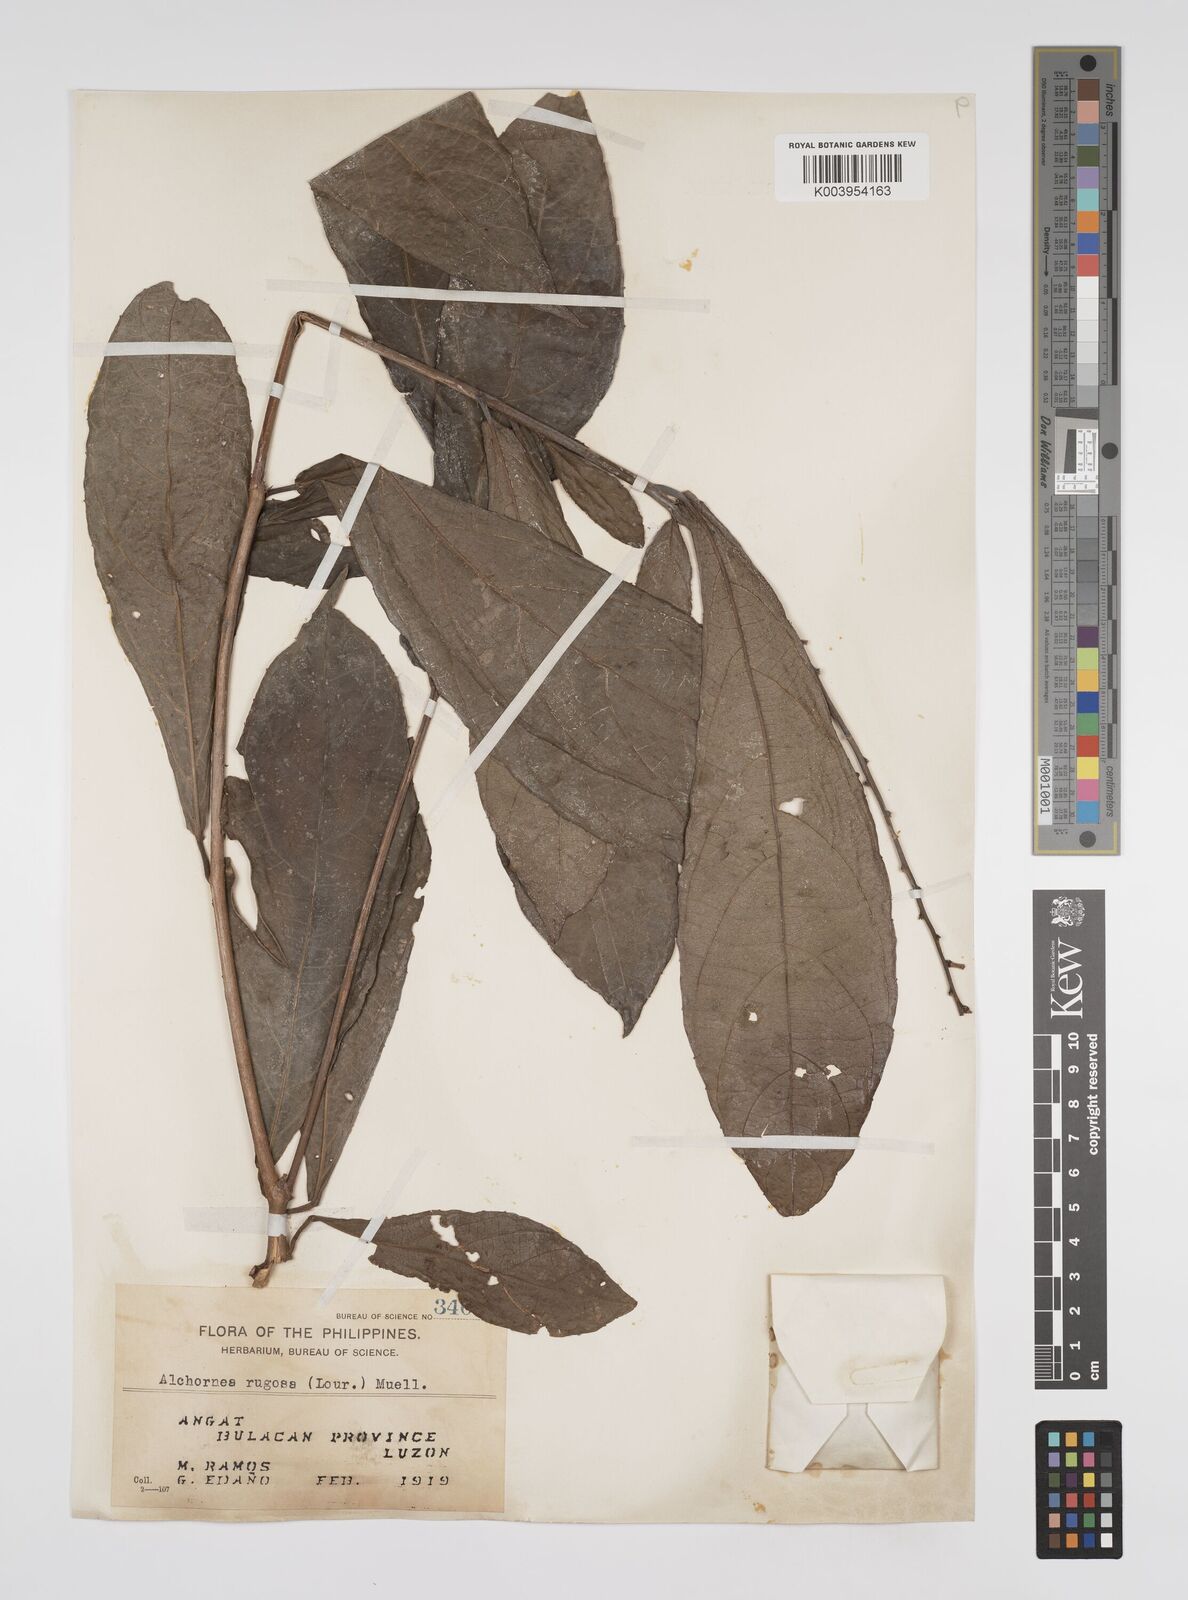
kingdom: Plantae
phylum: Tracheophyta
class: Magnoliopsida
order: Malpighiales
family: Euphorbiaceae
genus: Alchornea
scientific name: Alchornea rugosa
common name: Alchorntree
